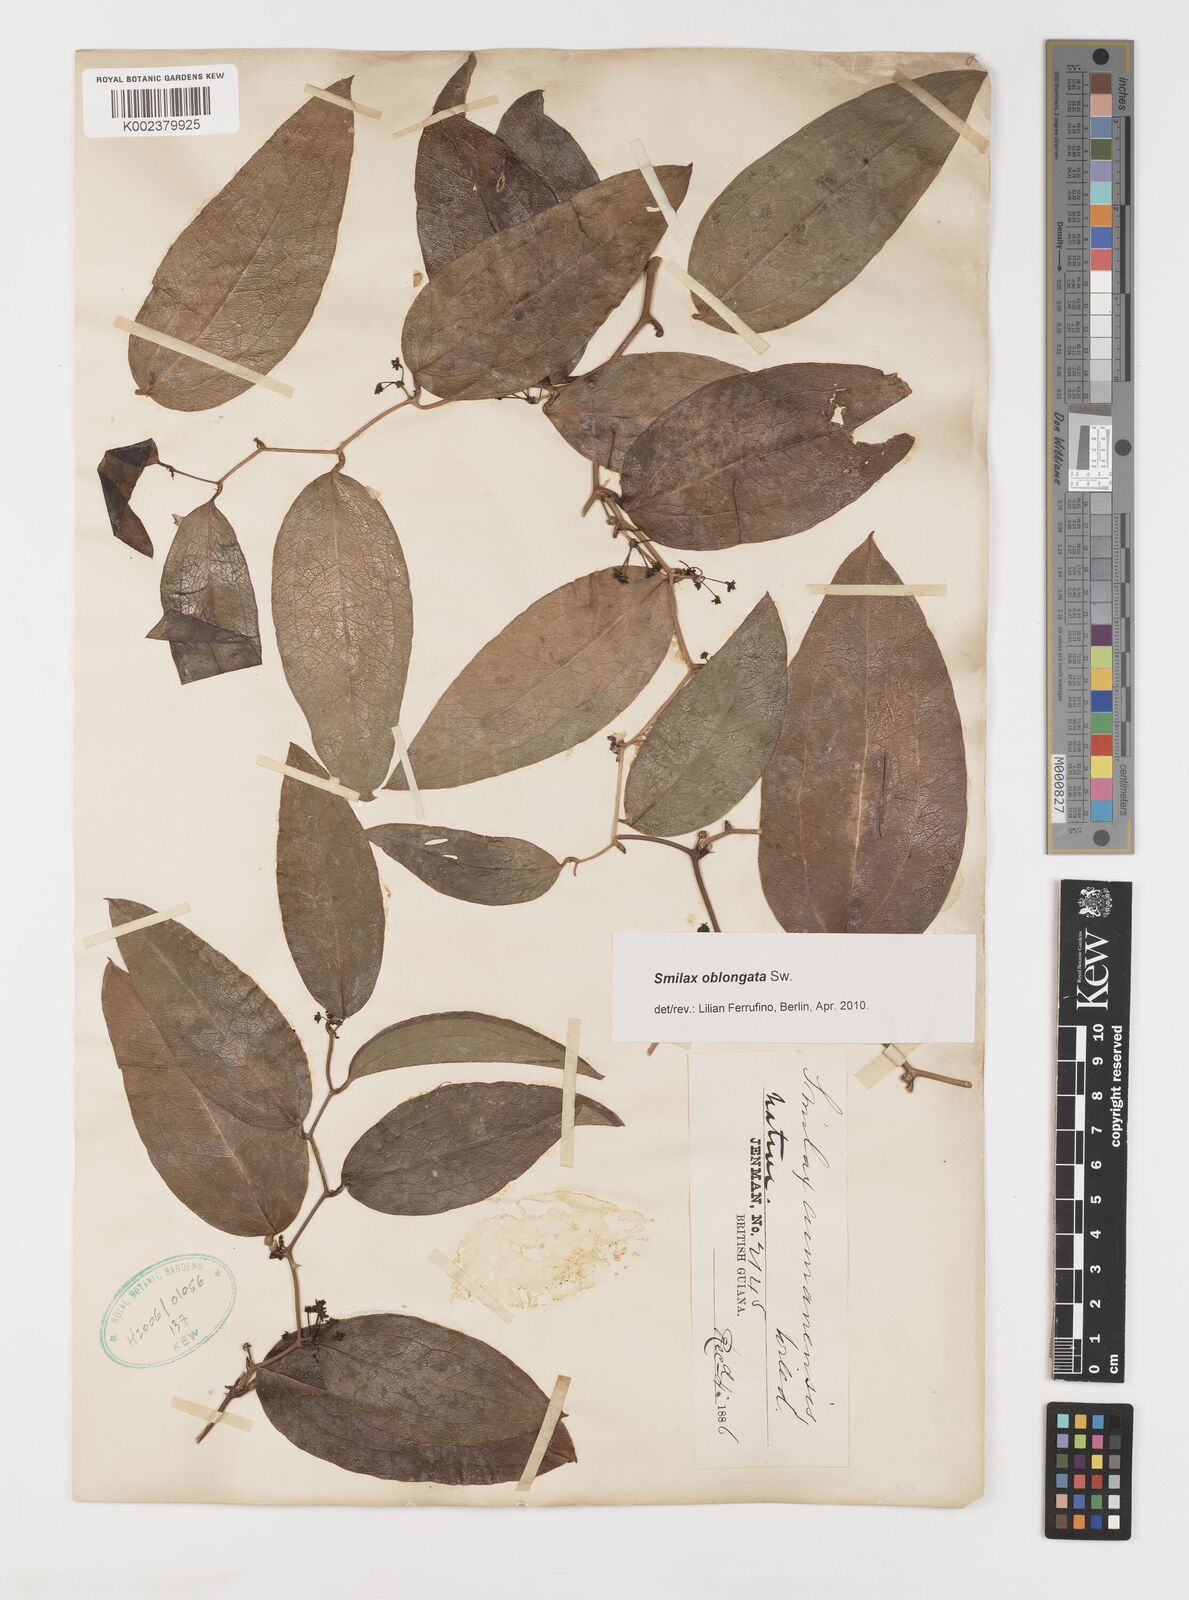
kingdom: Plantae
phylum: Tracheophyta
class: Liliopsida
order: Liliales
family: Smilacaceae
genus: Smilax
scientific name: Smilax oblongata
